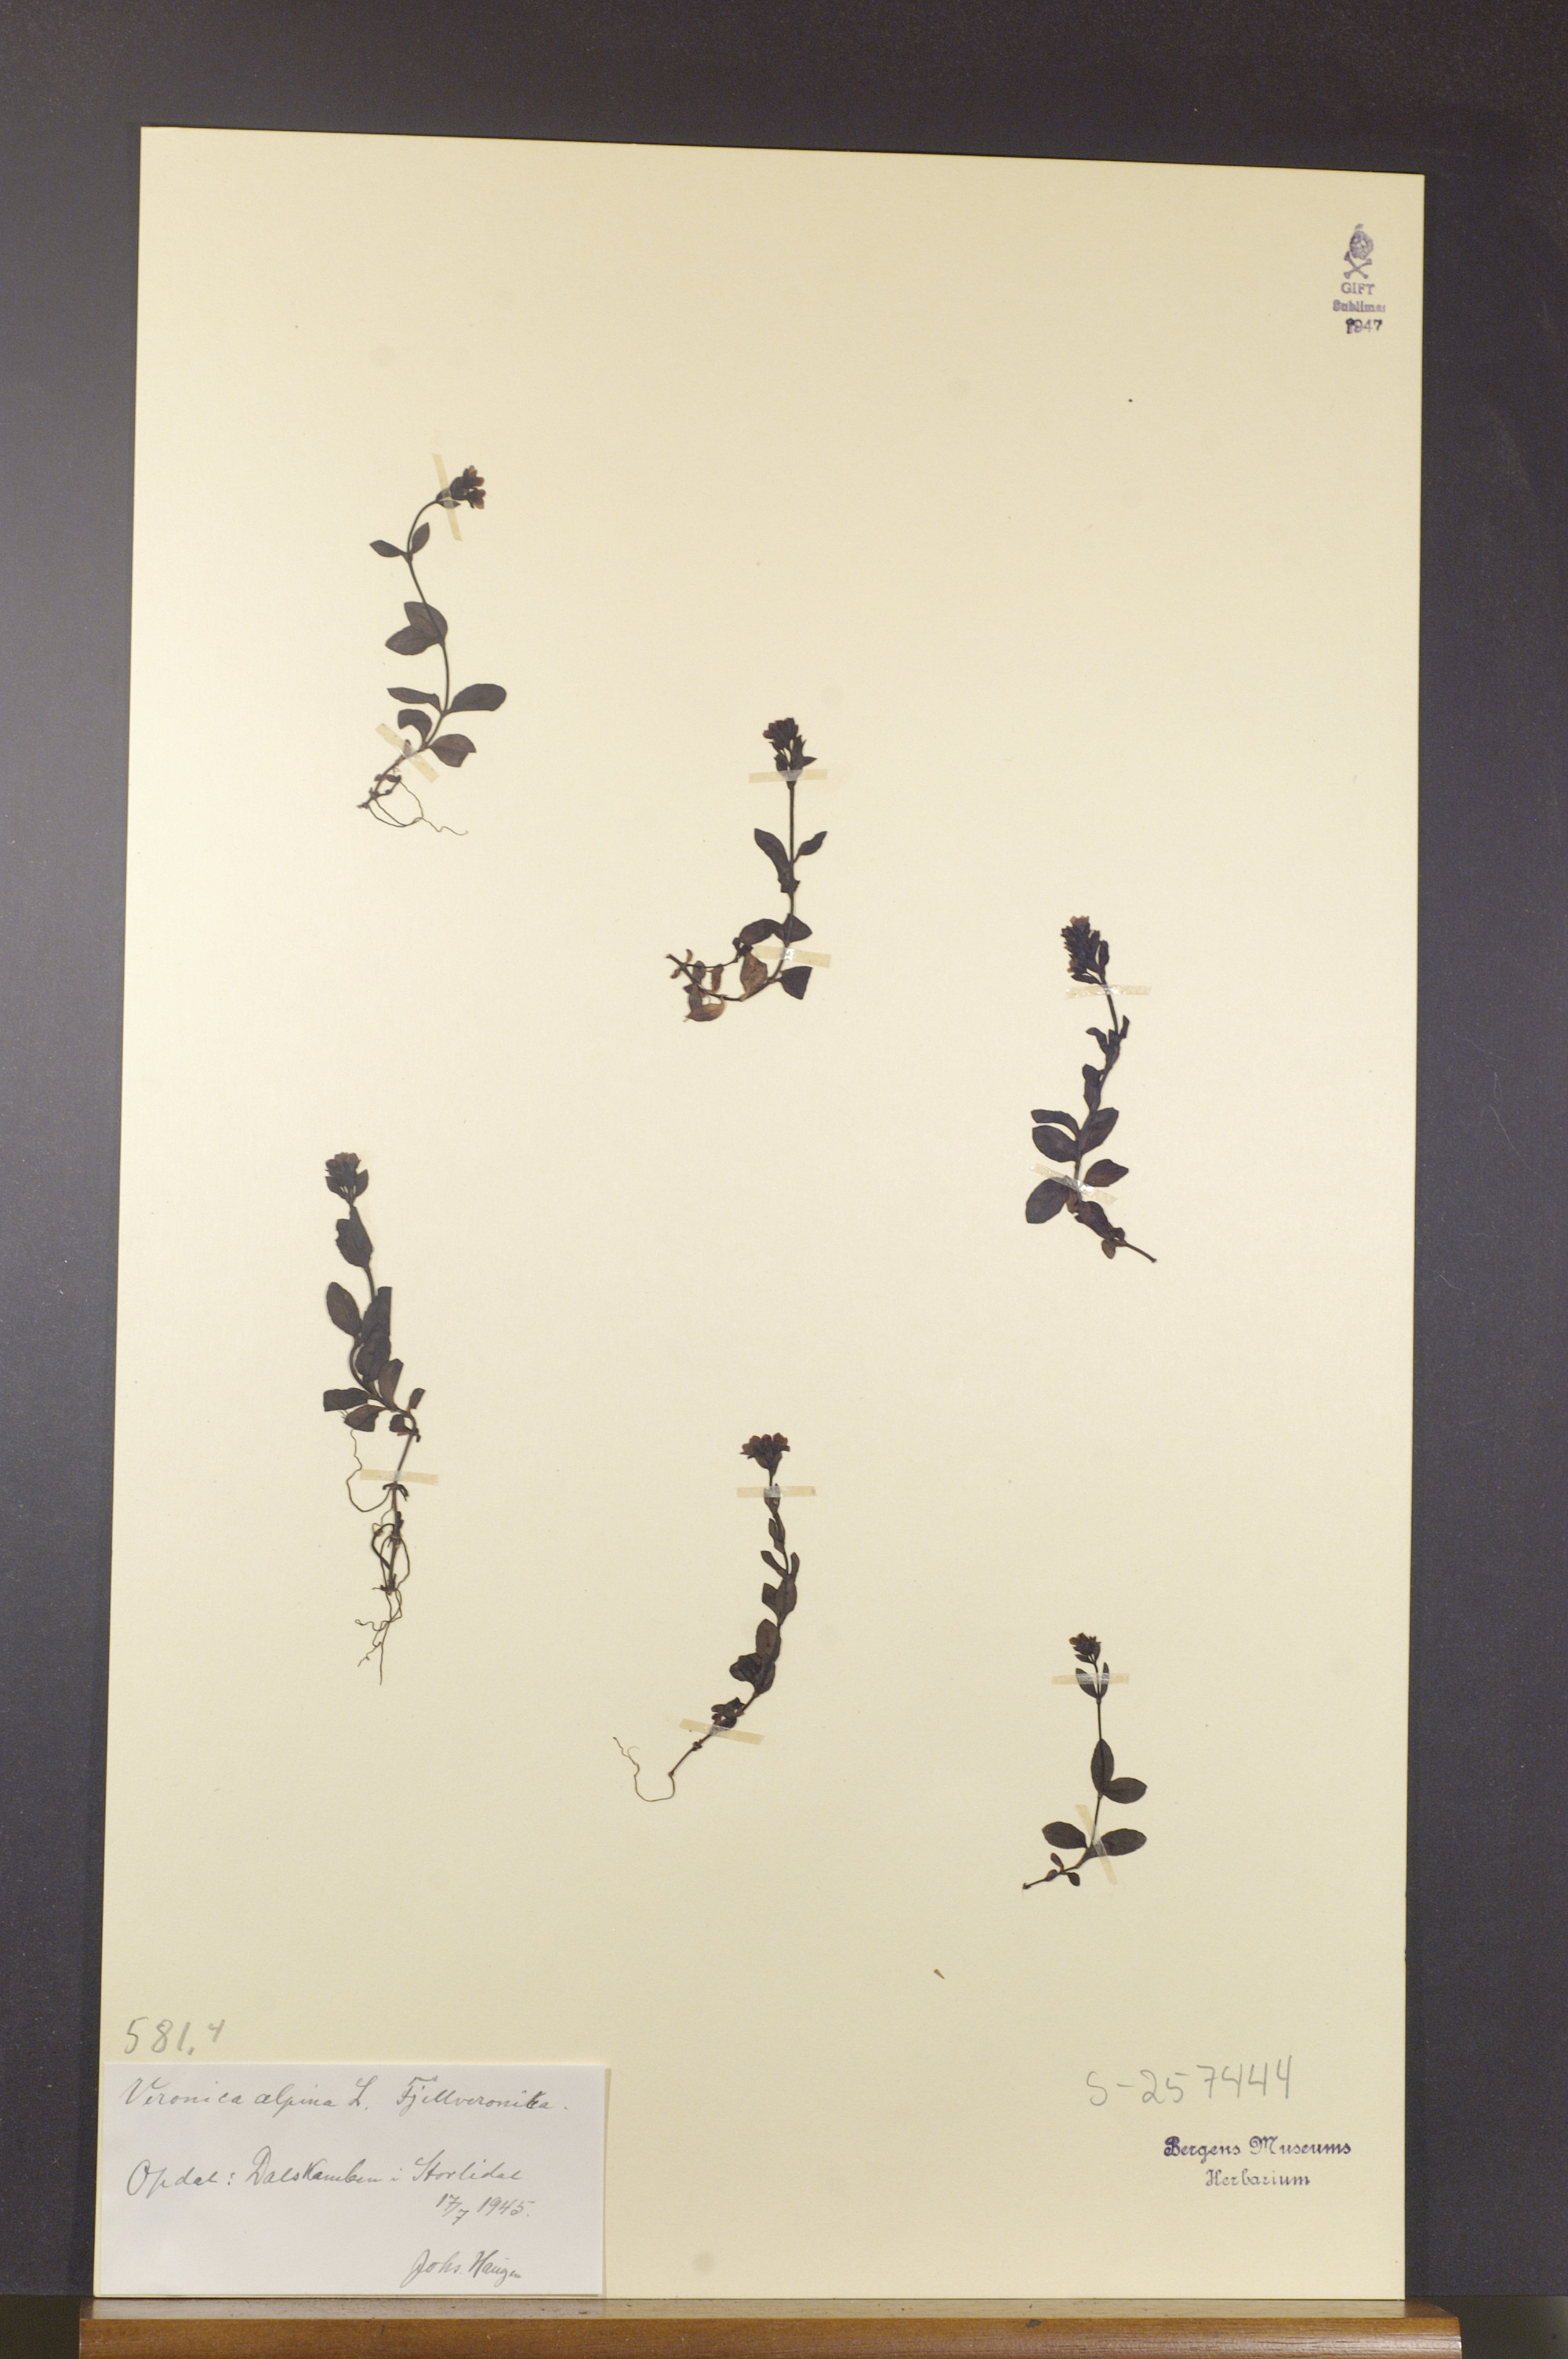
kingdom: Plantae
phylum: Tracheophyta
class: Magnoliopsida
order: Lamiales
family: Plantaginaceae
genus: Veronica
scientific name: Veronica alpina
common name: Alpine speedwell
